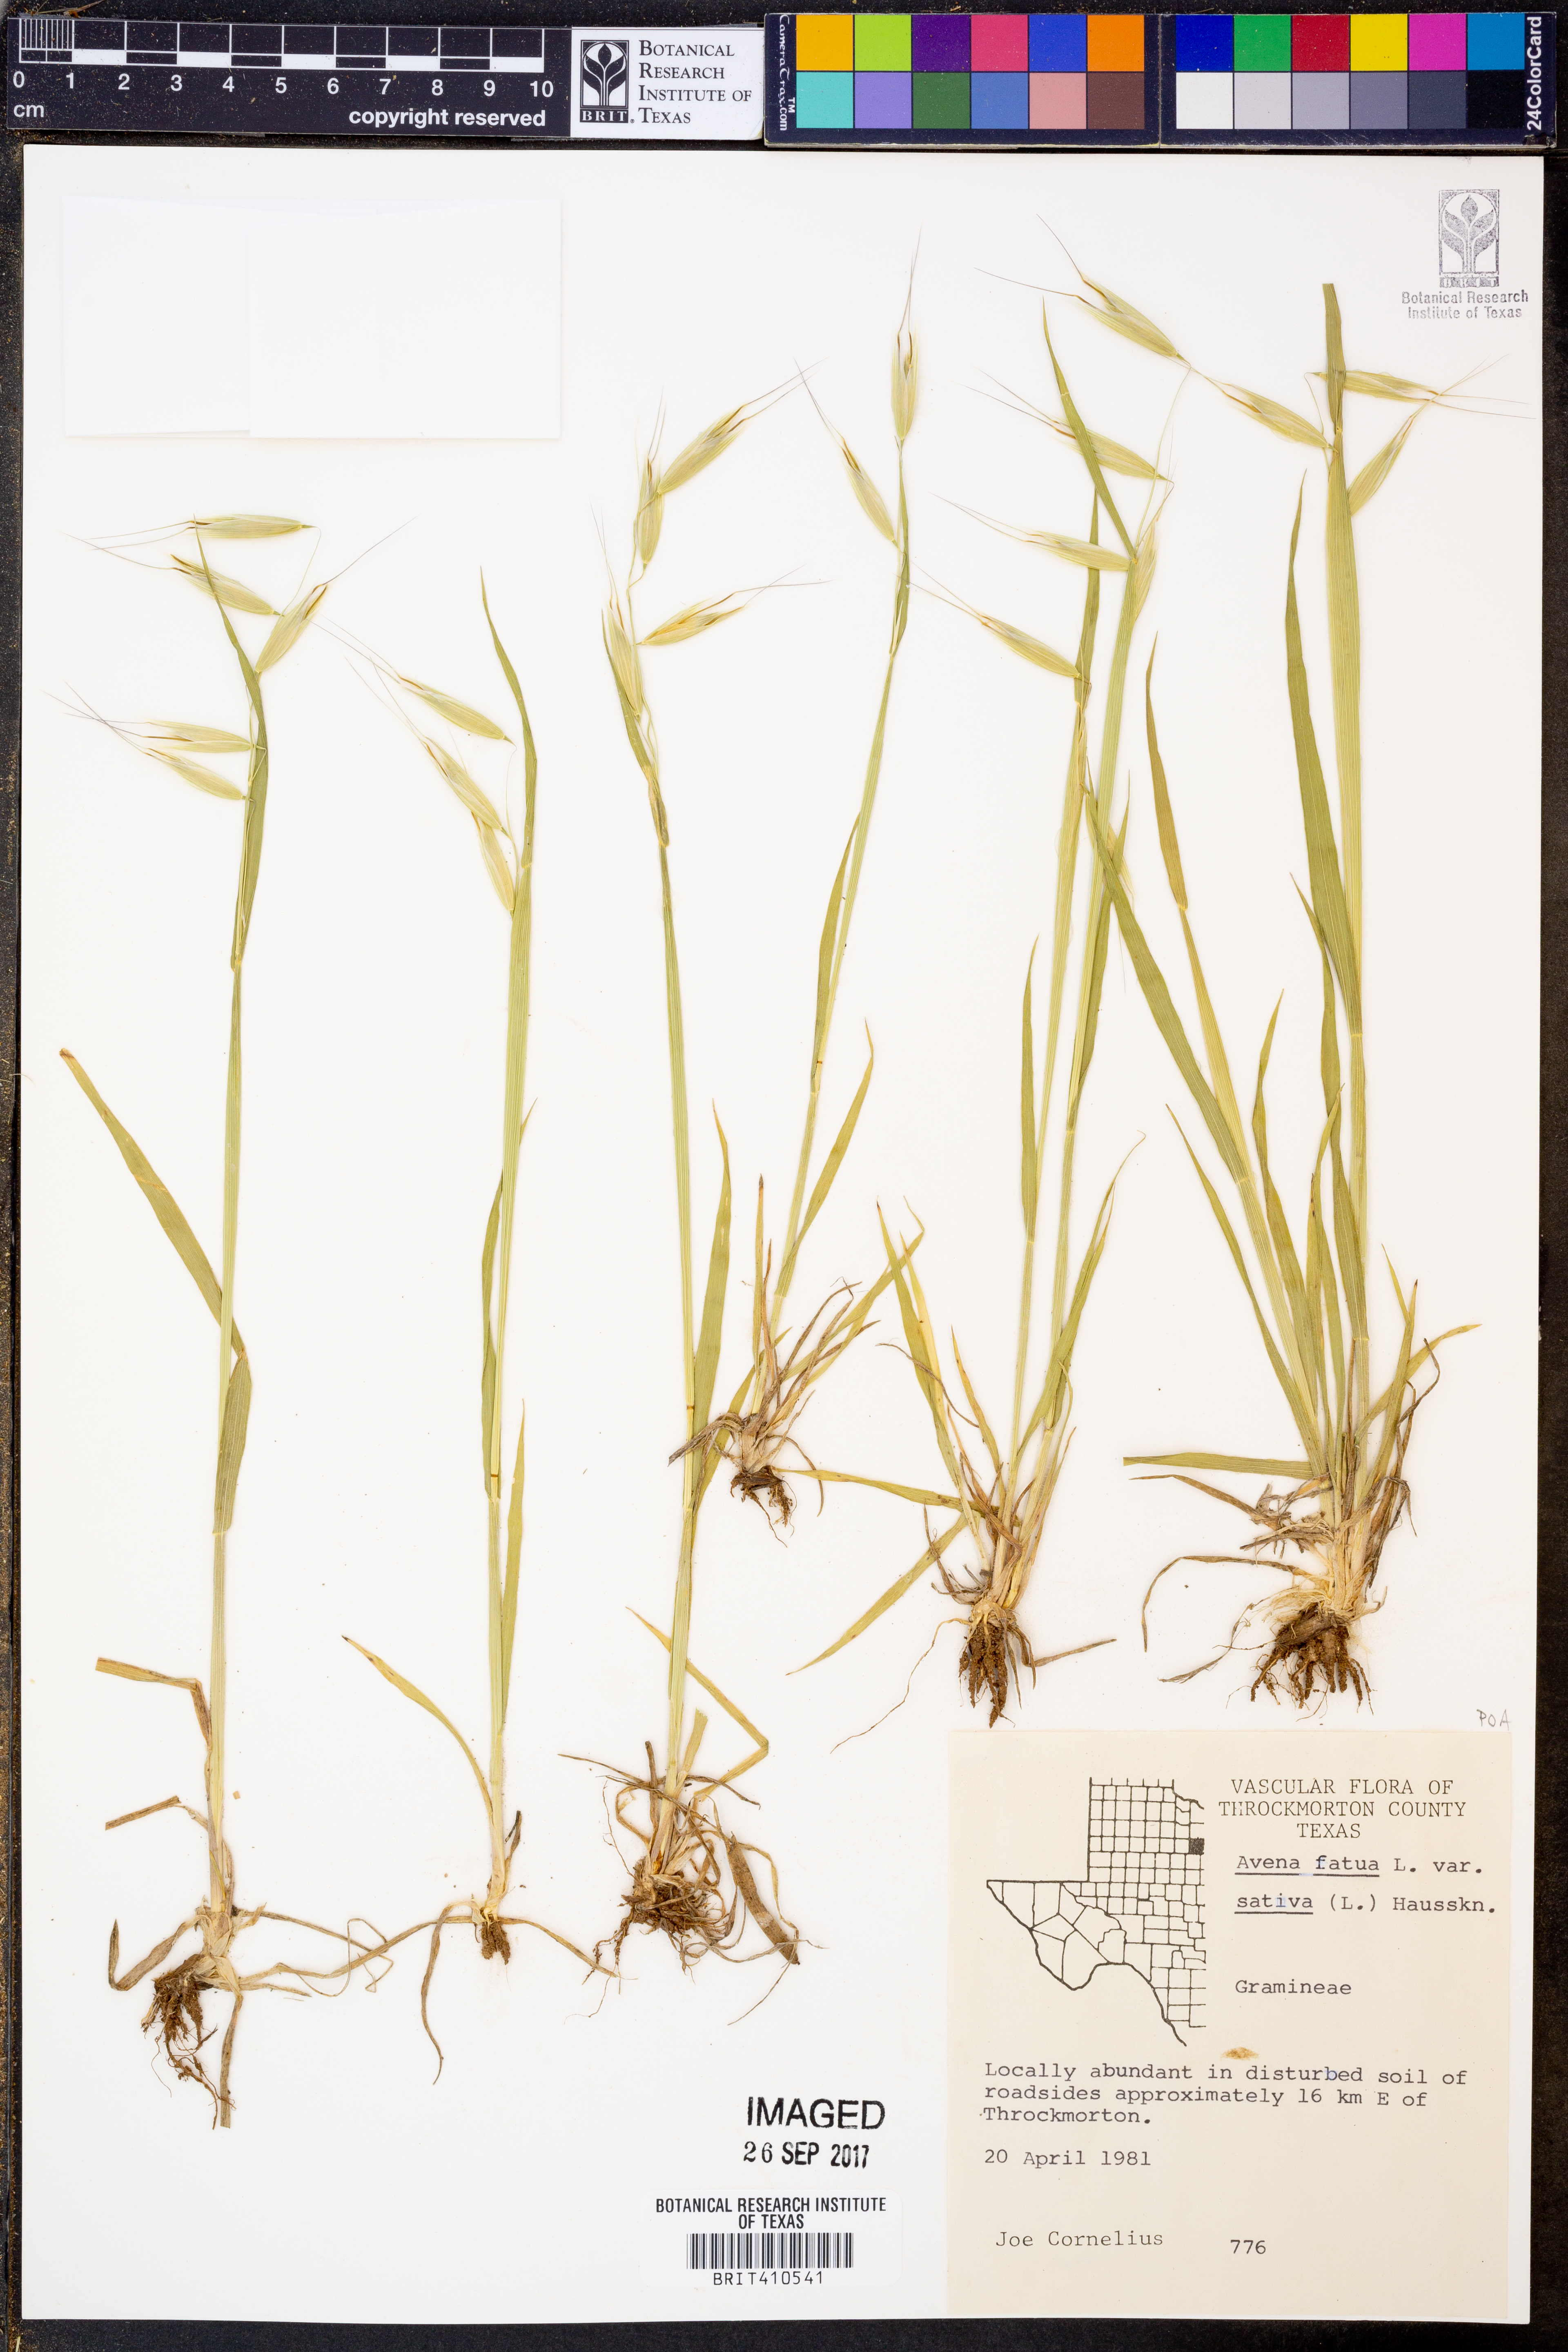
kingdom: Plantae
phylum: Tracheophyta
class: Liliopsida
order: Poales
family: Poaceae
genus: Avena
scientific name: Avena sativa
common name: Oat
